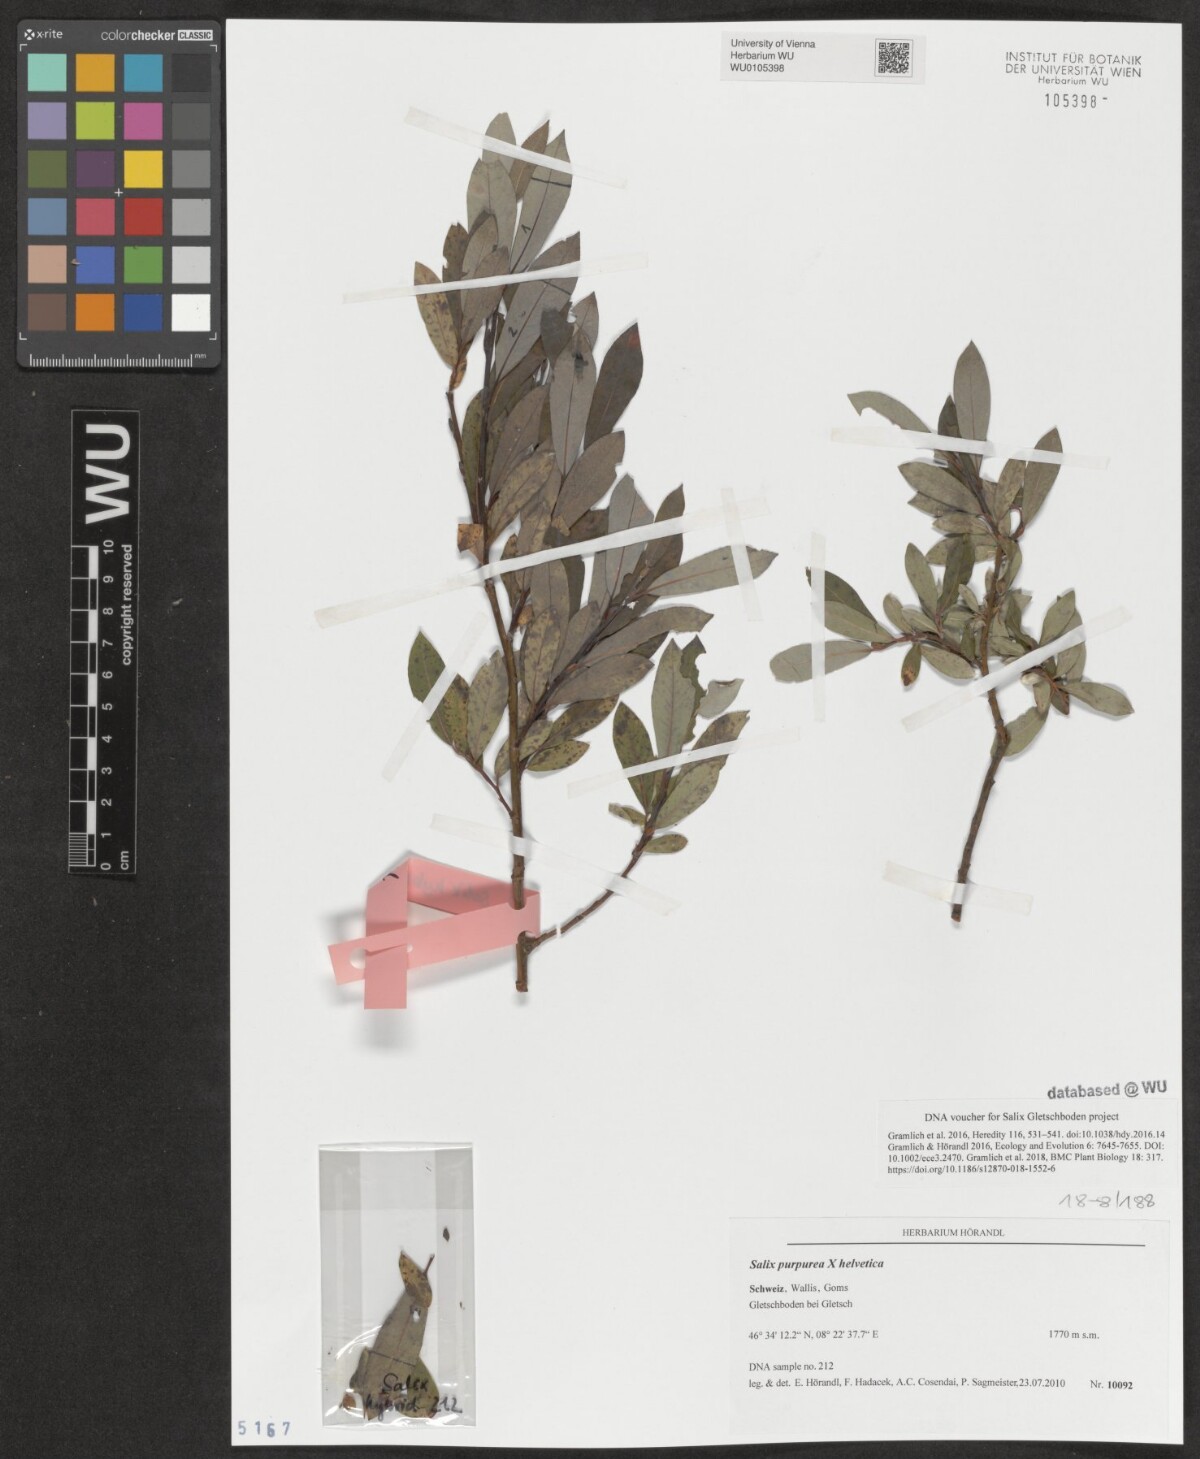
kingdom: Plantae
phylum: Tracheophyta
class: Magnoliopsida
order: Malpighiales
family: Salicaceae
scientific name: Salicaceae
